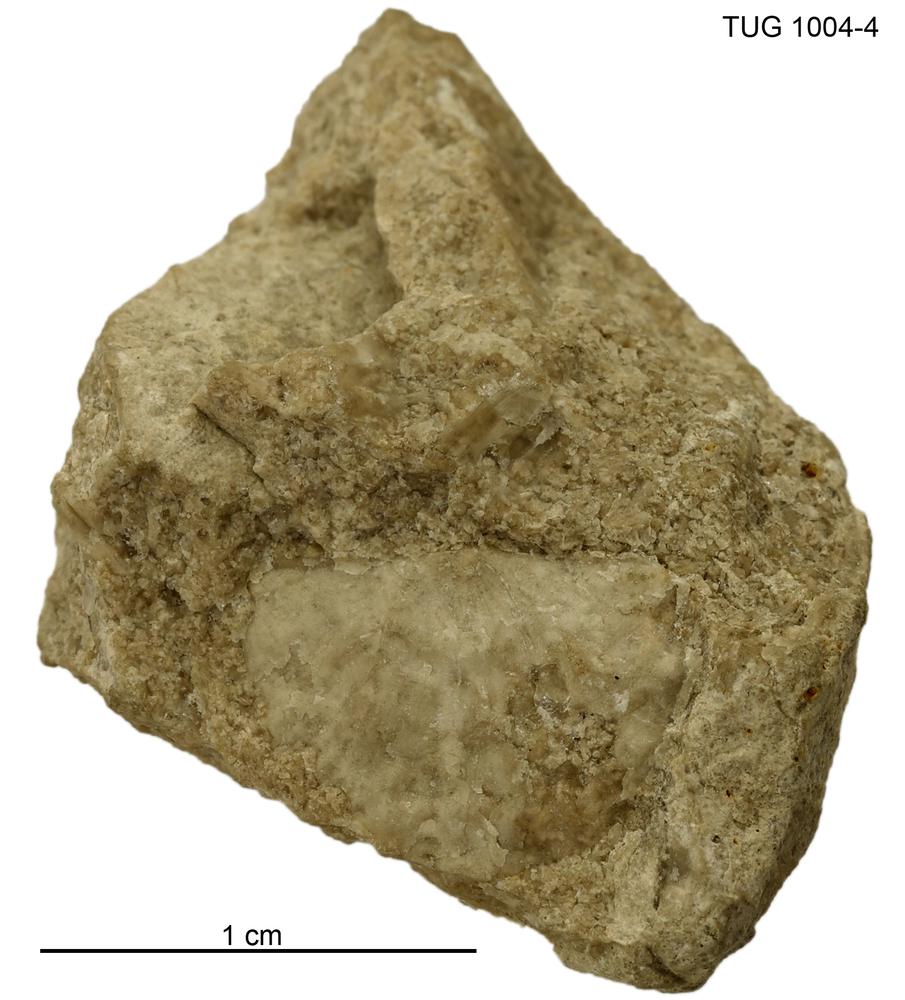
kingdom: Animalia
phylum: Brachiopoda
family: Strophomenidae
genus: Holtedahlina
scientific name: Holtedahlina
